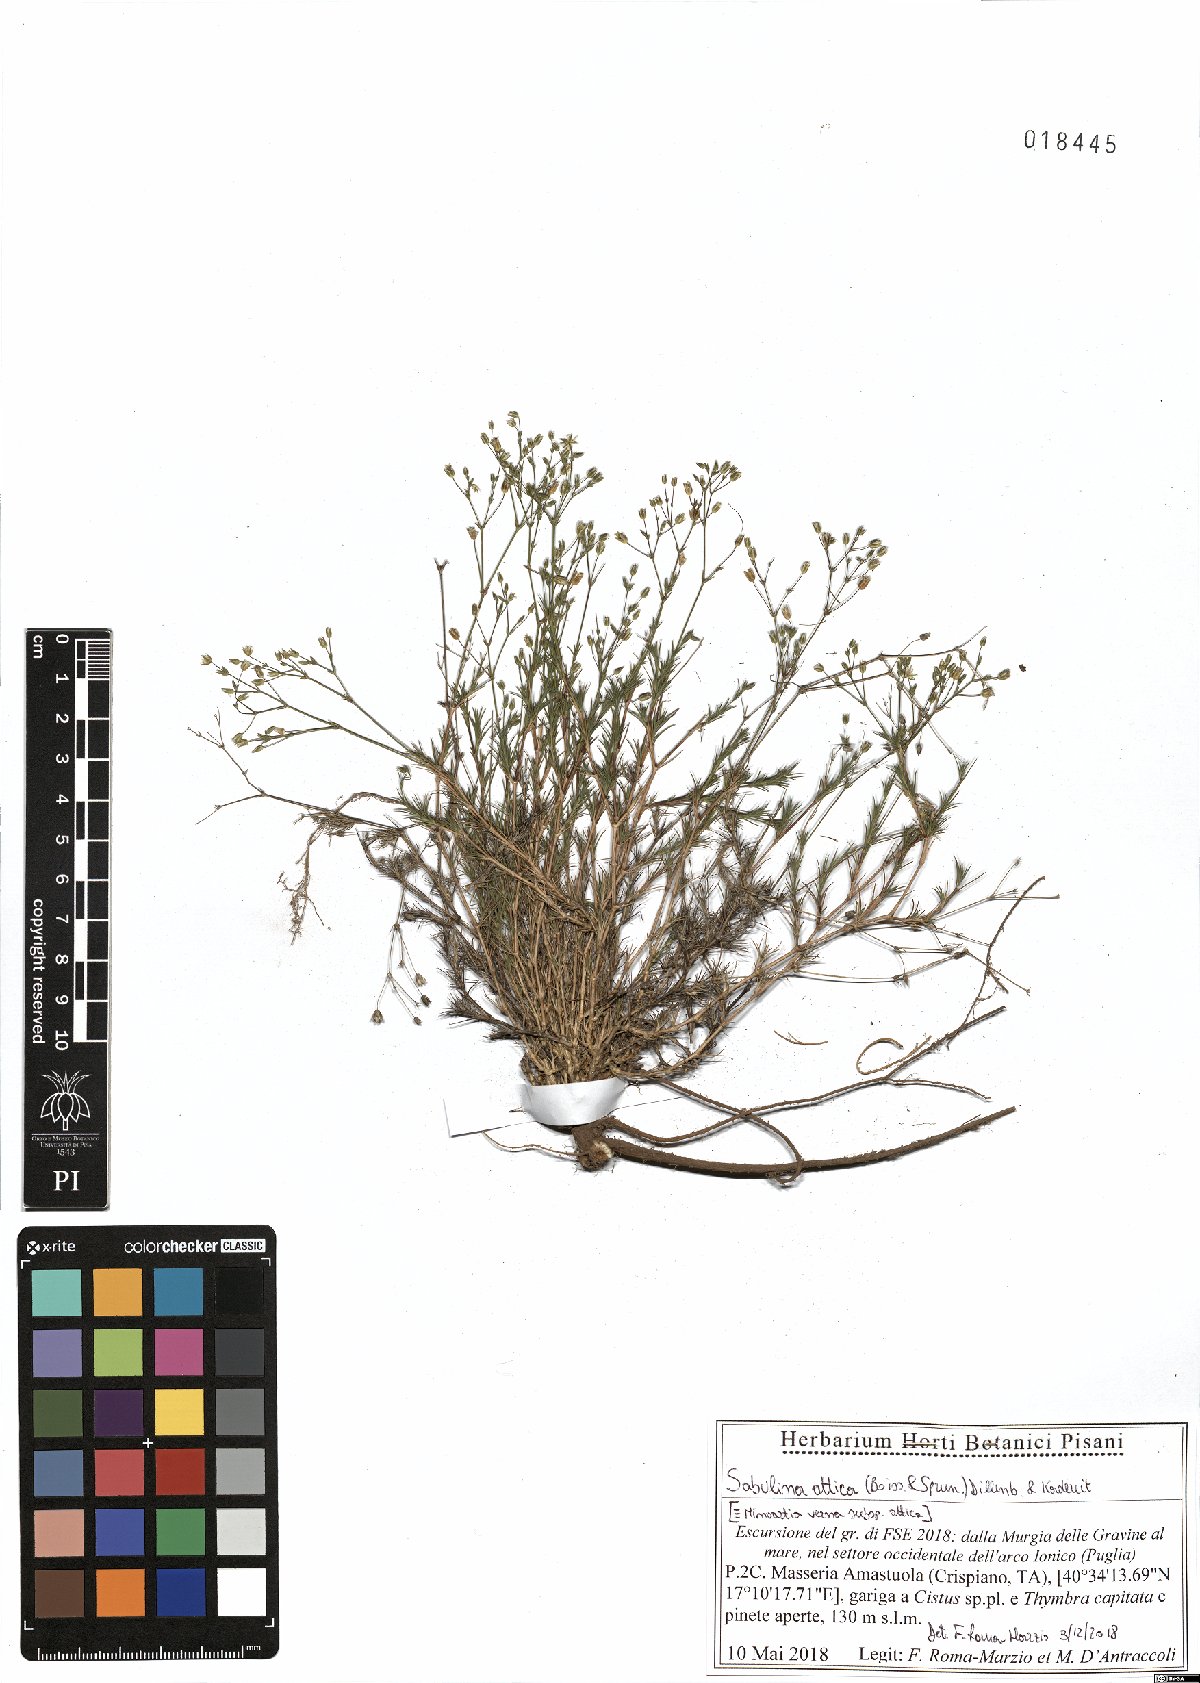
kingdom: Plantae
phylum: Tracheophyta
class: Magnoliopsida
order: Caryophyllales
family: Caryophyllaceae
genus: Sabulina
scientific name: Sabulina attica
